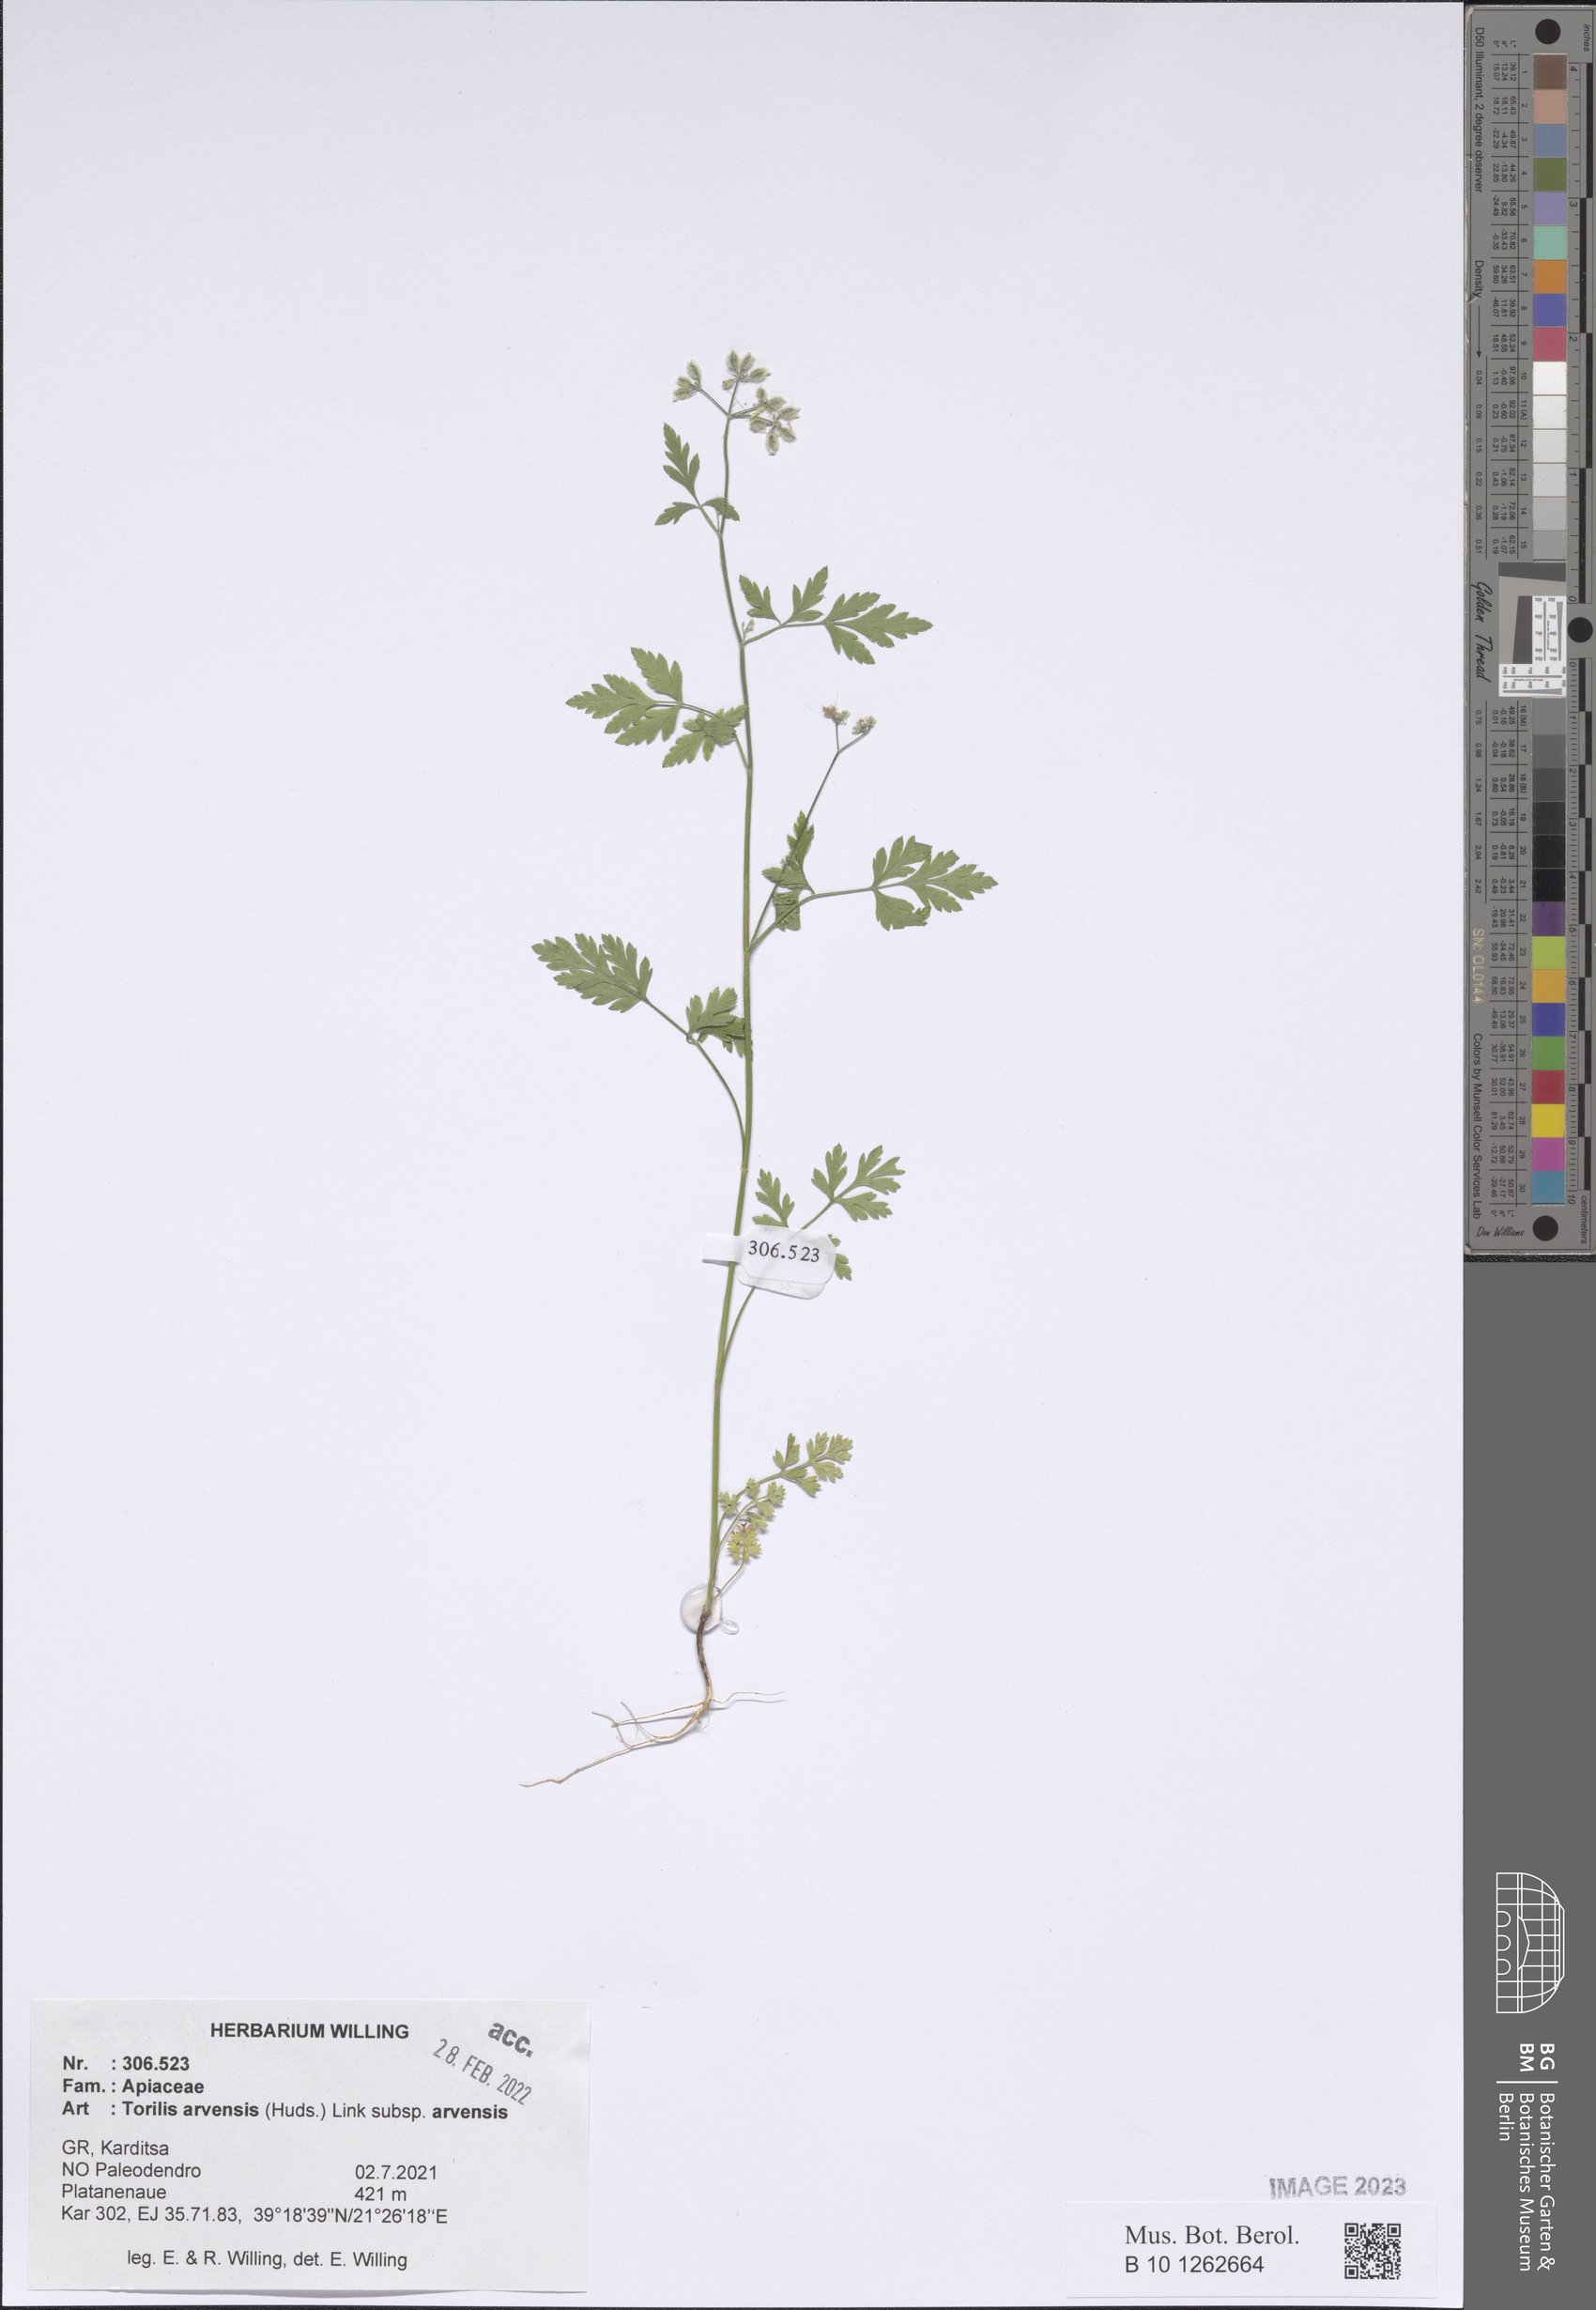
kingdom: Plantae
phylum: Tracheophyta
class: Magnoliopsida
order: Apiales
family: Apiaceae
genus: Torilis
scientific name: Torilis arvensis
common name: Spreading hedge-parsley
